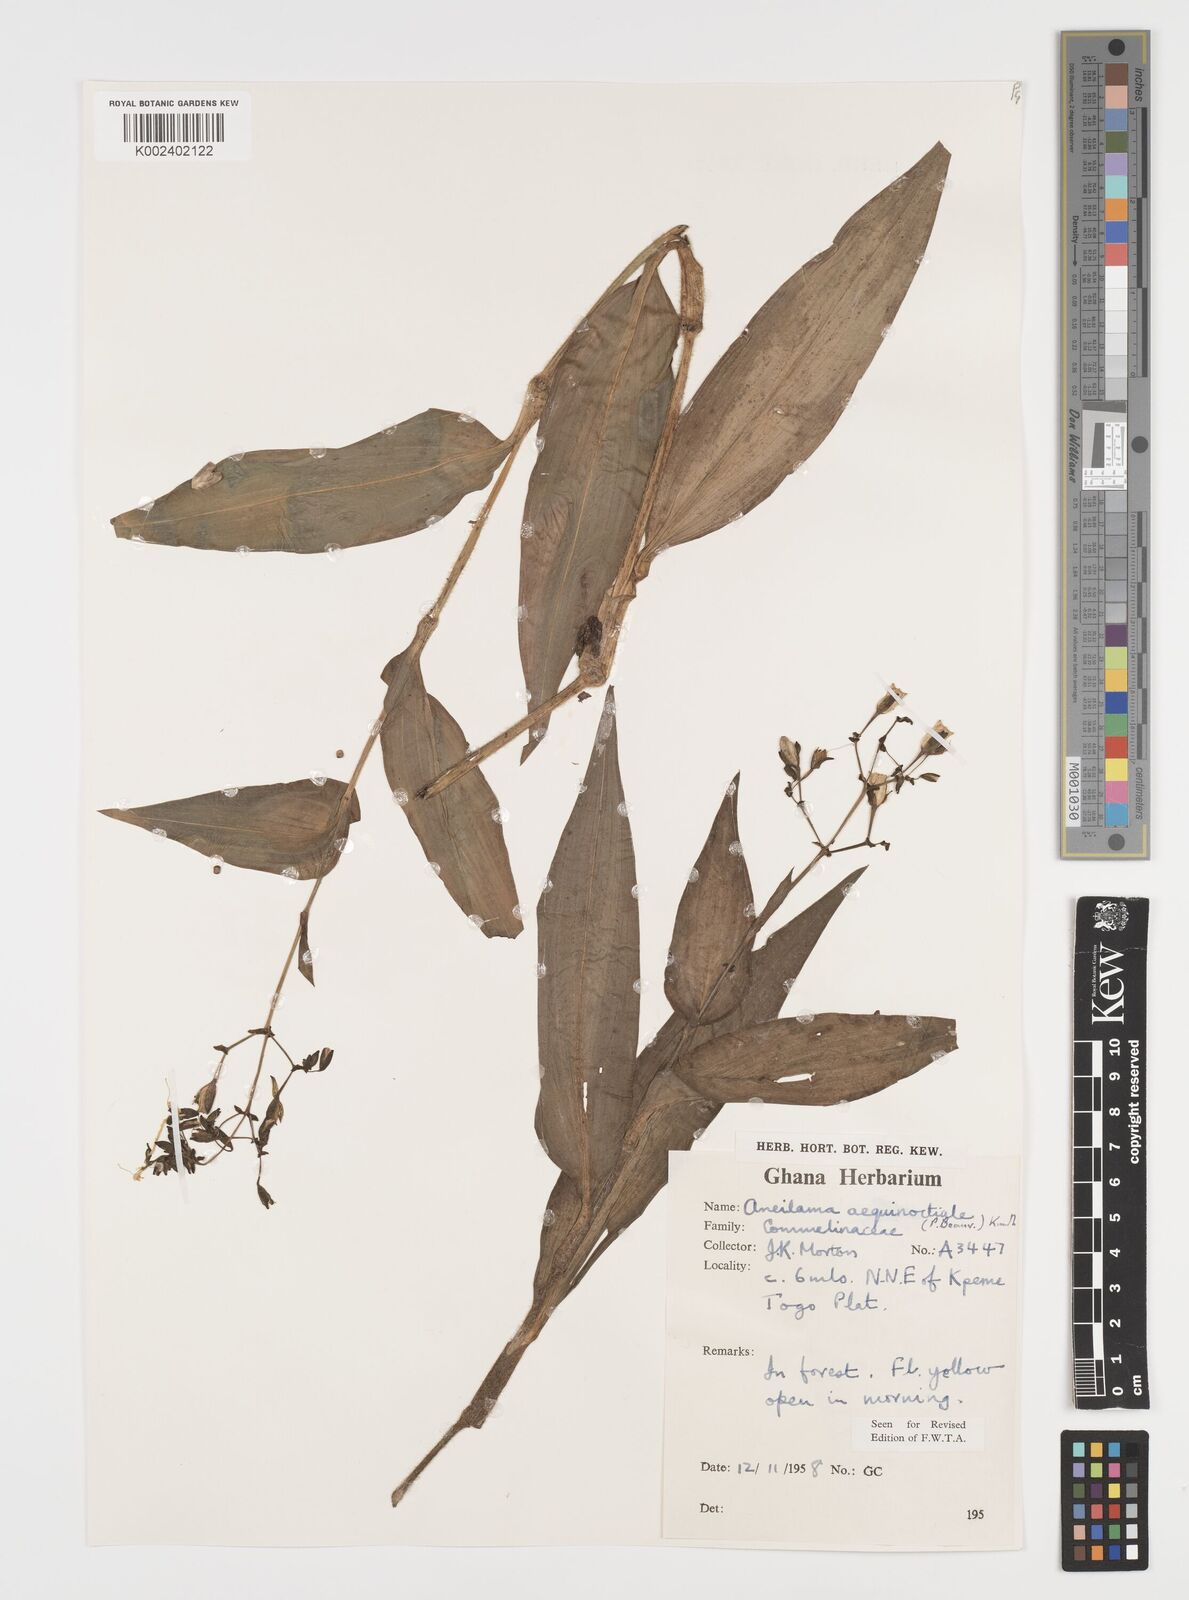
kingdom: Plantae
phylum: Tracheophyta
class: Liliopsida
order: Commelinales
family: Commelinaceae
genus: Aneilema
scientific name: Aneilema aequinoctiale
